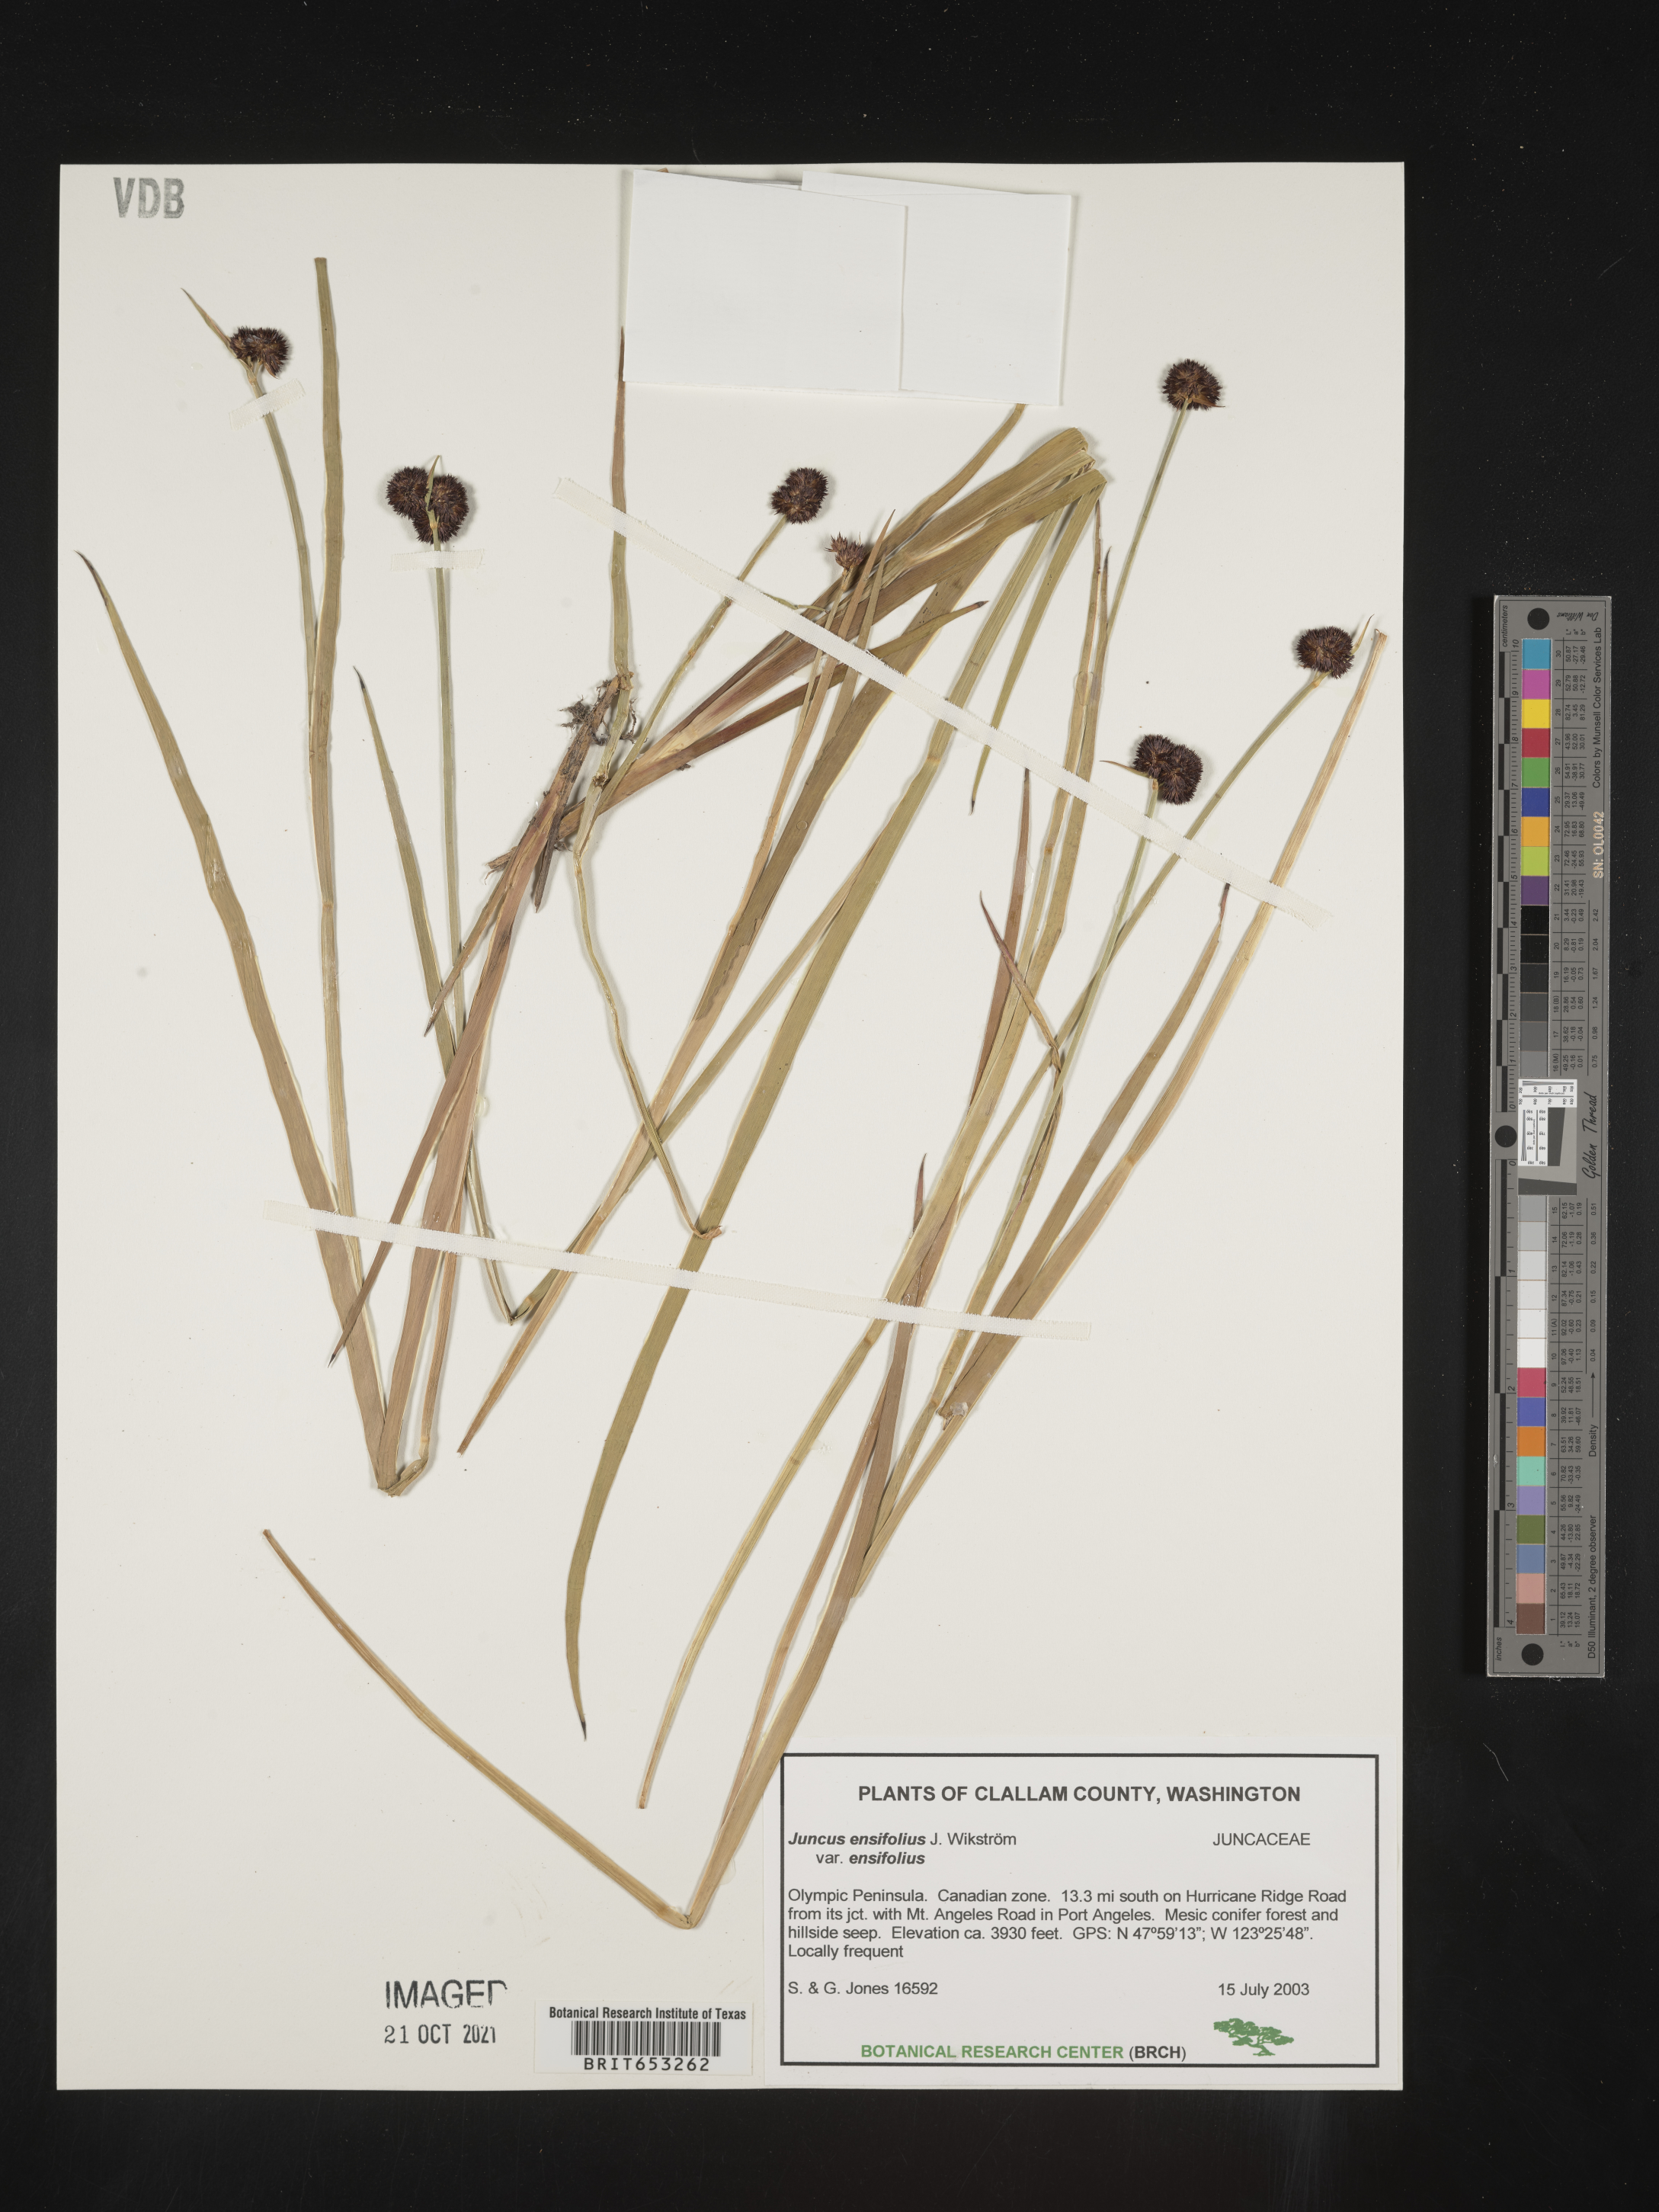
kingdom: Plantae
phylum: Tracheophyta
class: Liliopsida
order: Poales
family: Juncaceae
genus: Juncus
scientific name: Juncus ensifolius
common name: Sword-leaved rush
